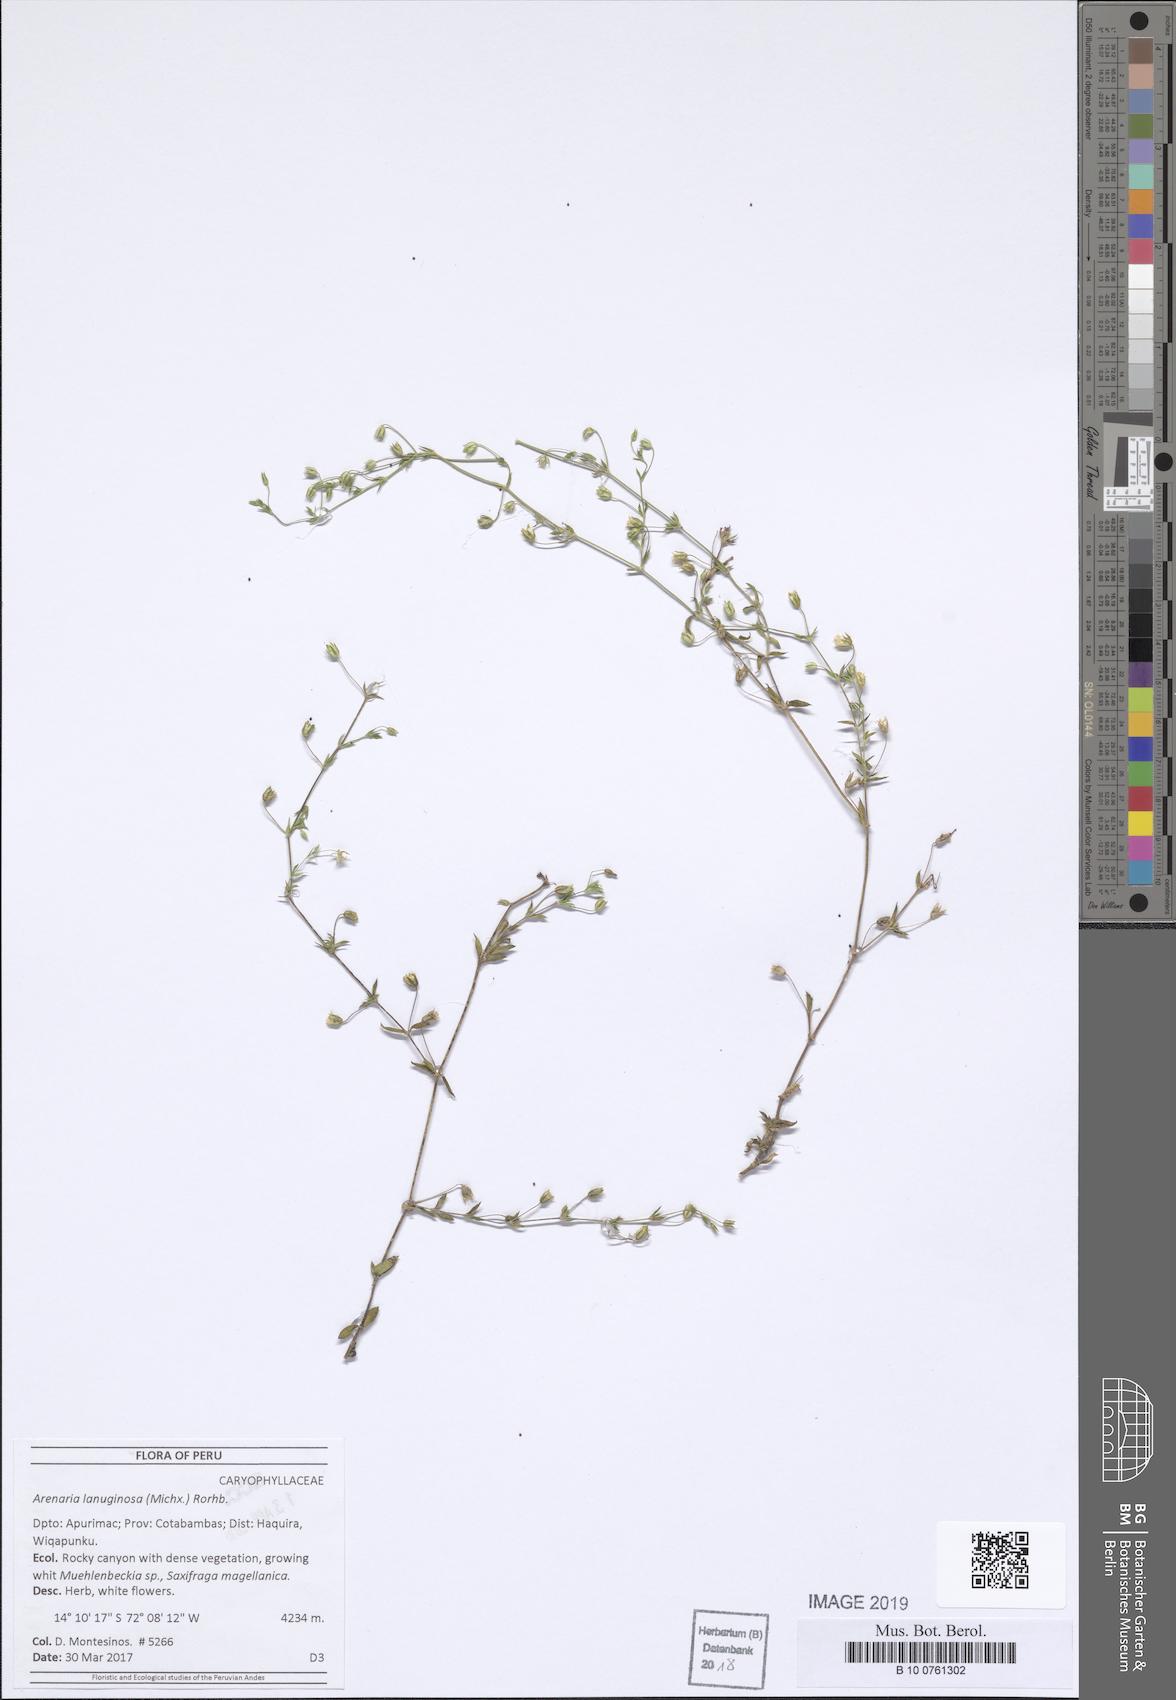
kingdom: Plantae
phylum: Tracheophyta
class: Magnoliopsida
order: Caryophyllales
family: Caryophyllaceae
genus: Arenaria
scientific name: Arenaria lanuginosa
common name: Spread sandwort
